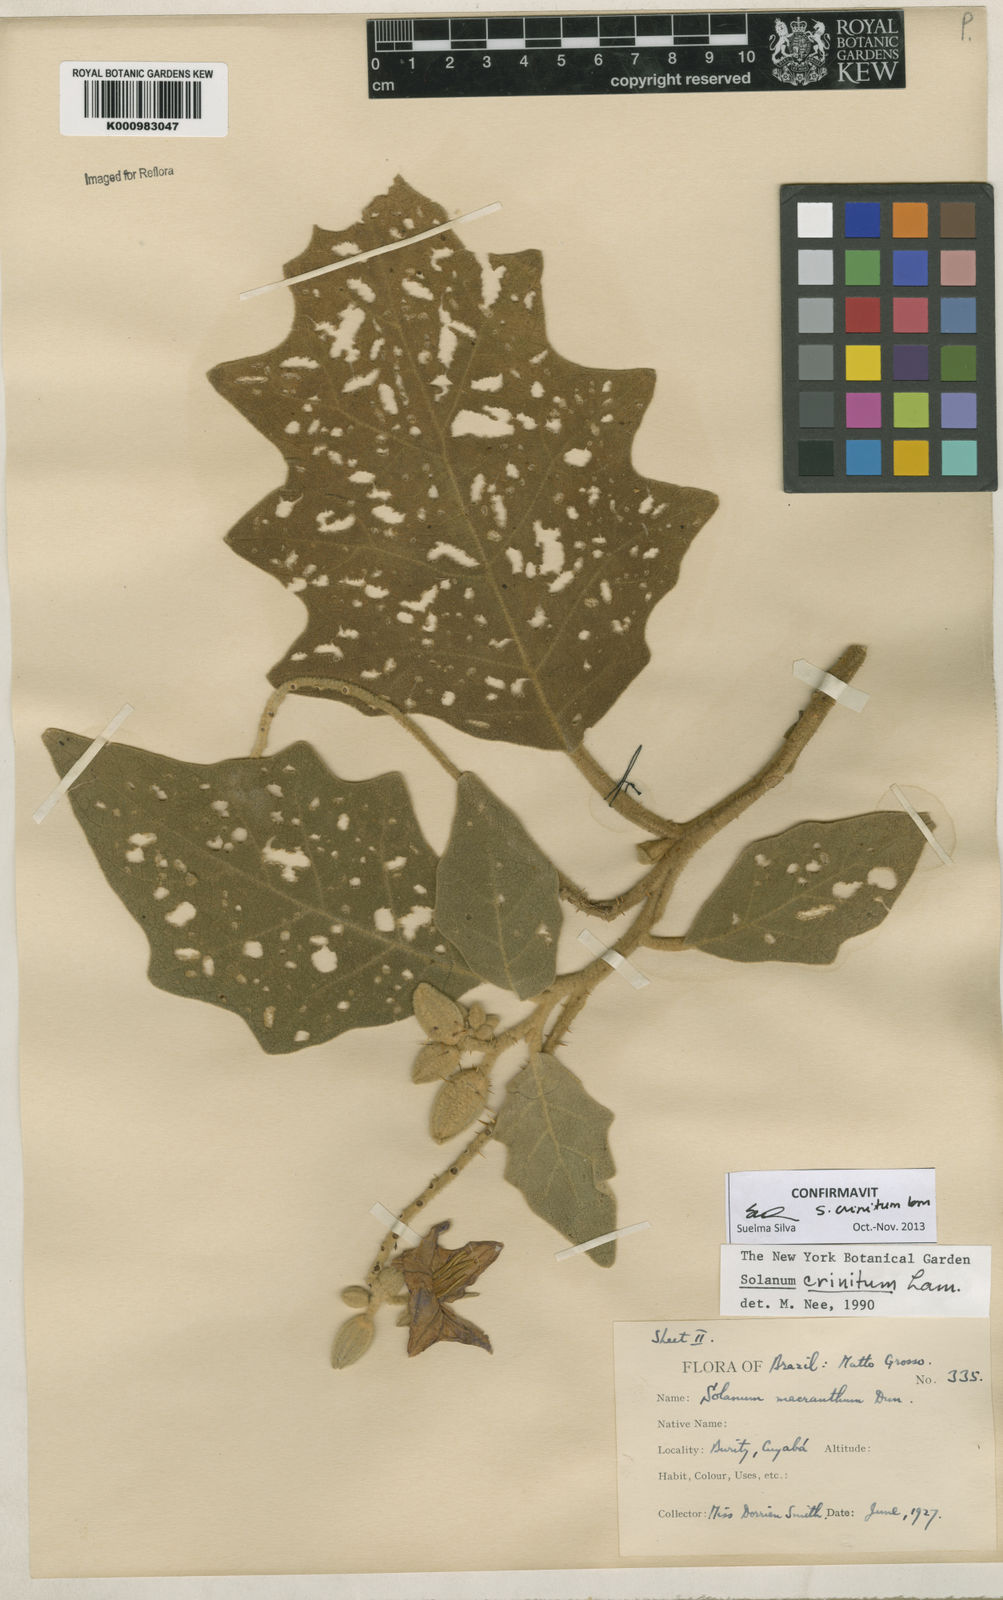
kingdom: Plantae
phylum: Tracheophyta
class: Magnoliopsida
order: Solanales
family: Solanaceae
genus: Solanum
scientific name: Solanum crinitum
